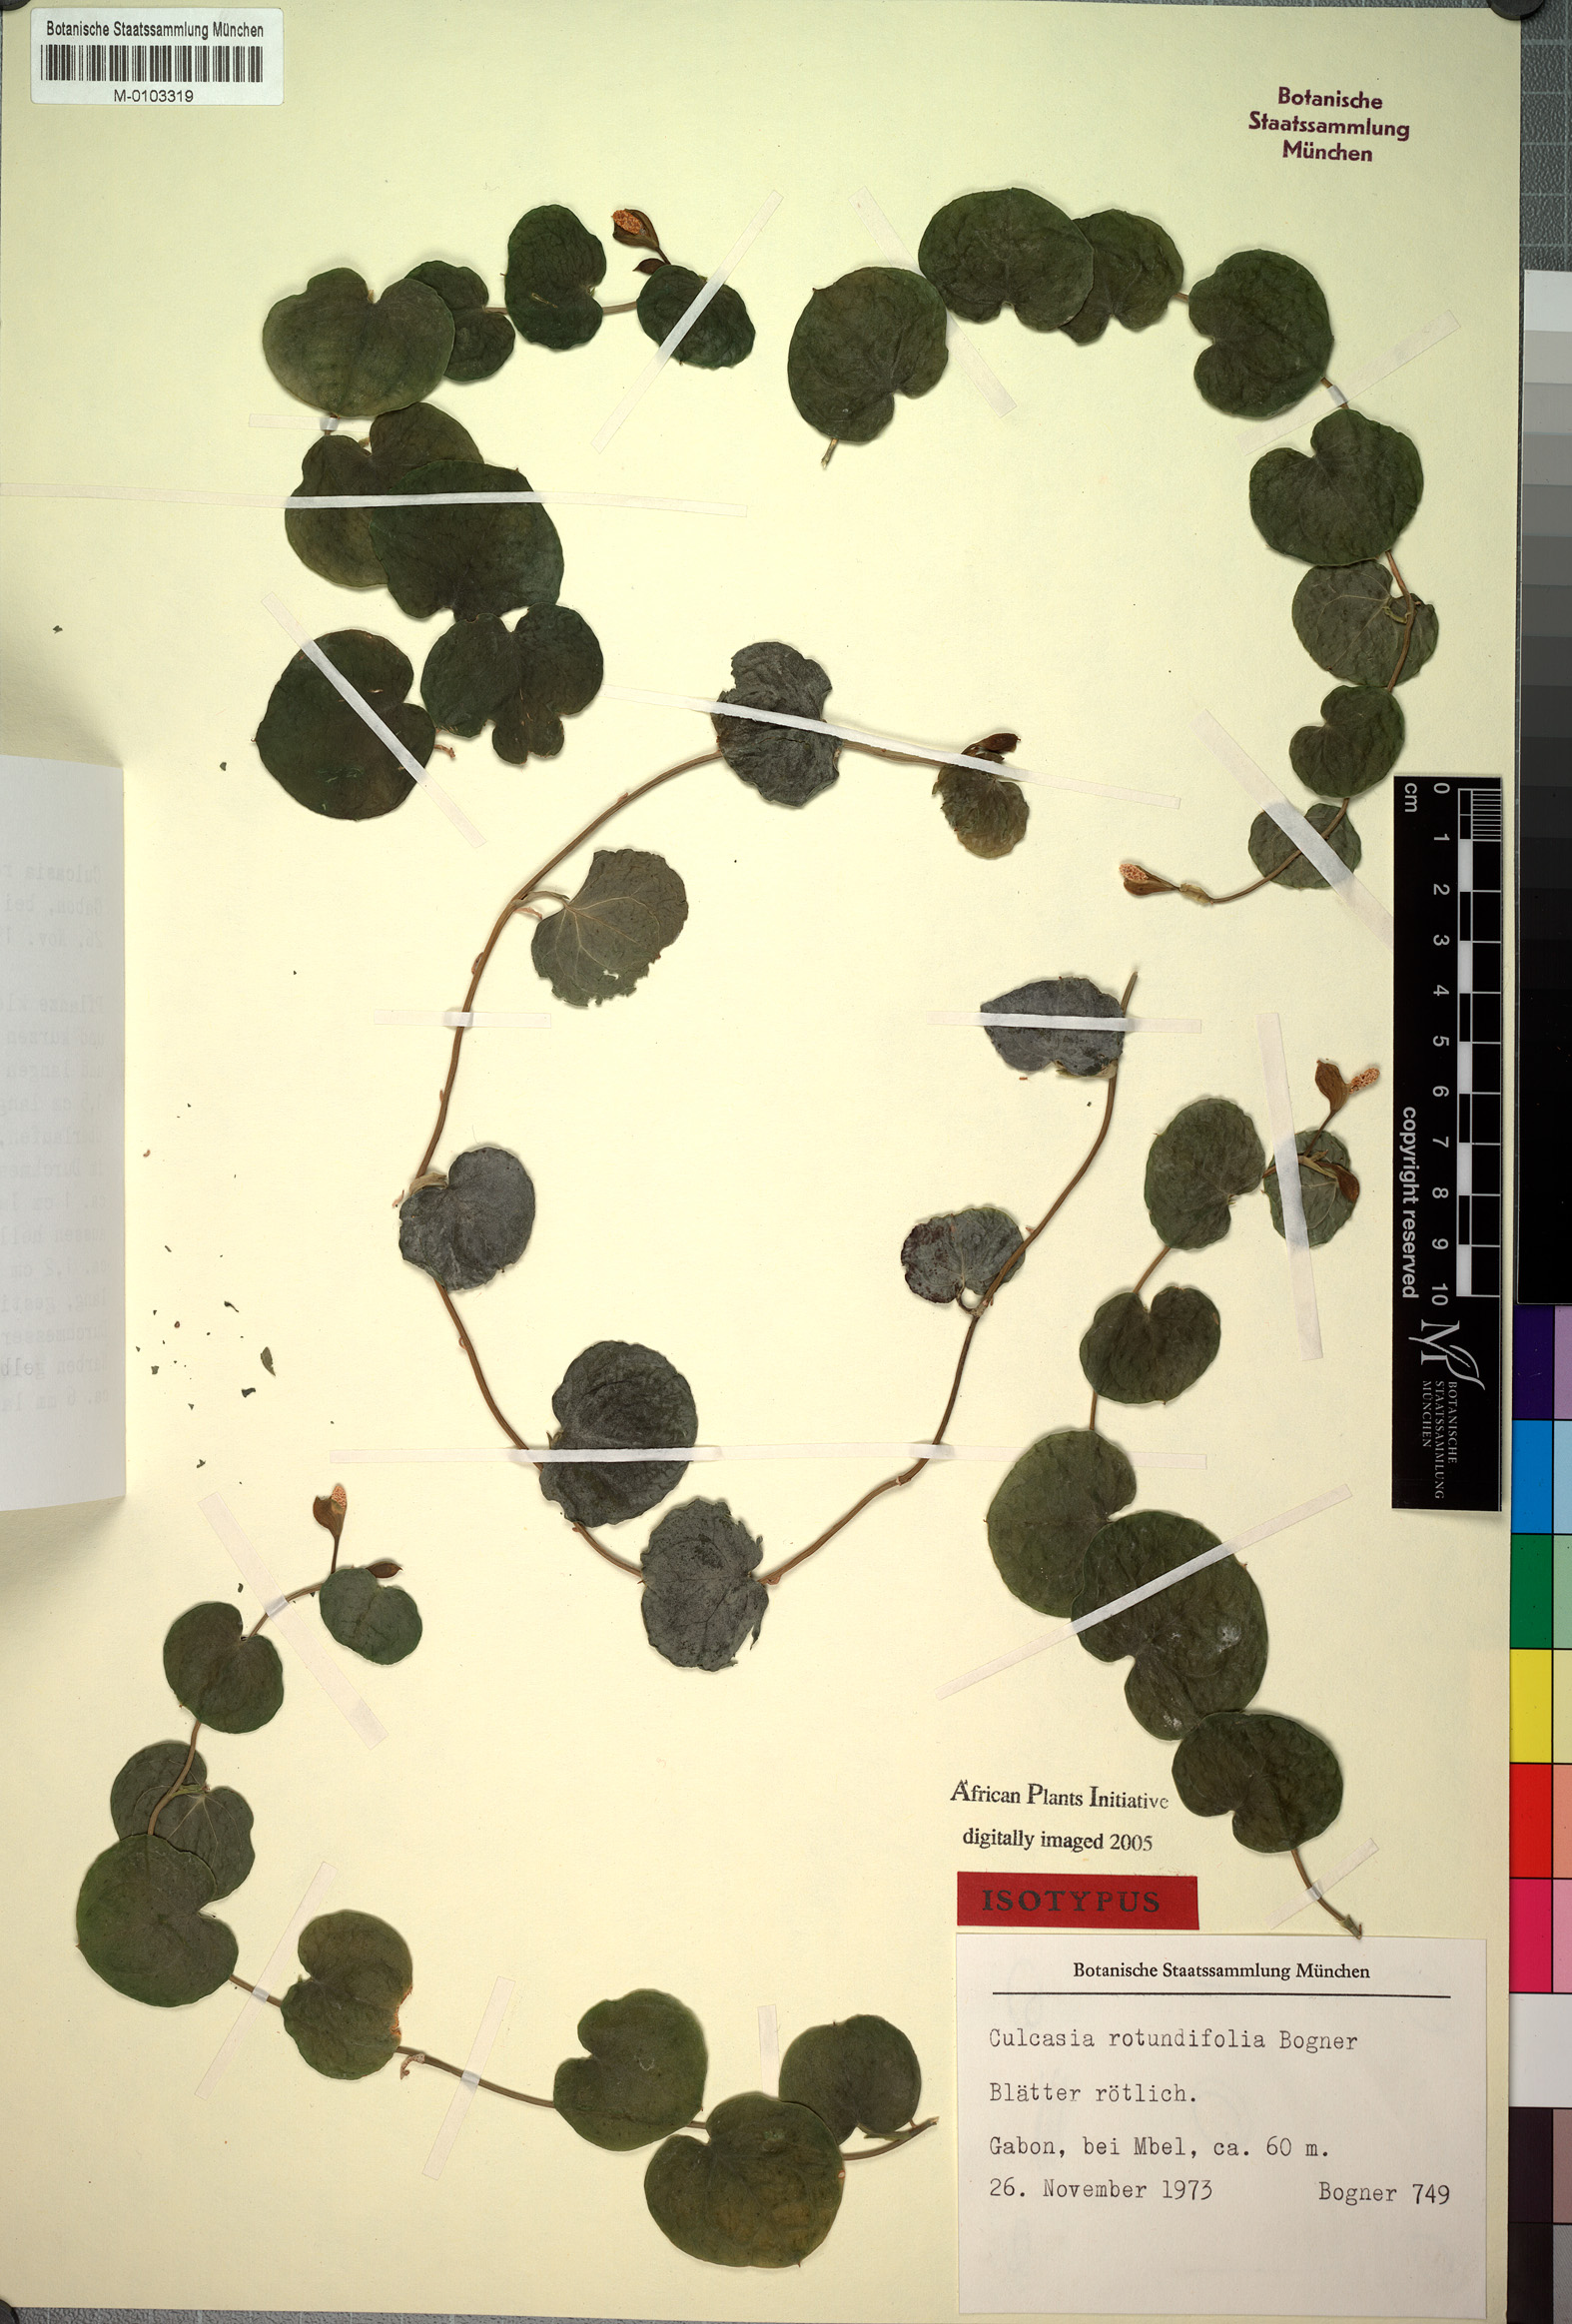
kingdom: Plantae
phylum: Tracheophyta
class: Liliopsida
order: Alismatales
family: Araceae
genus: Culcasia
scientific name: Culcasia rotundifolia
